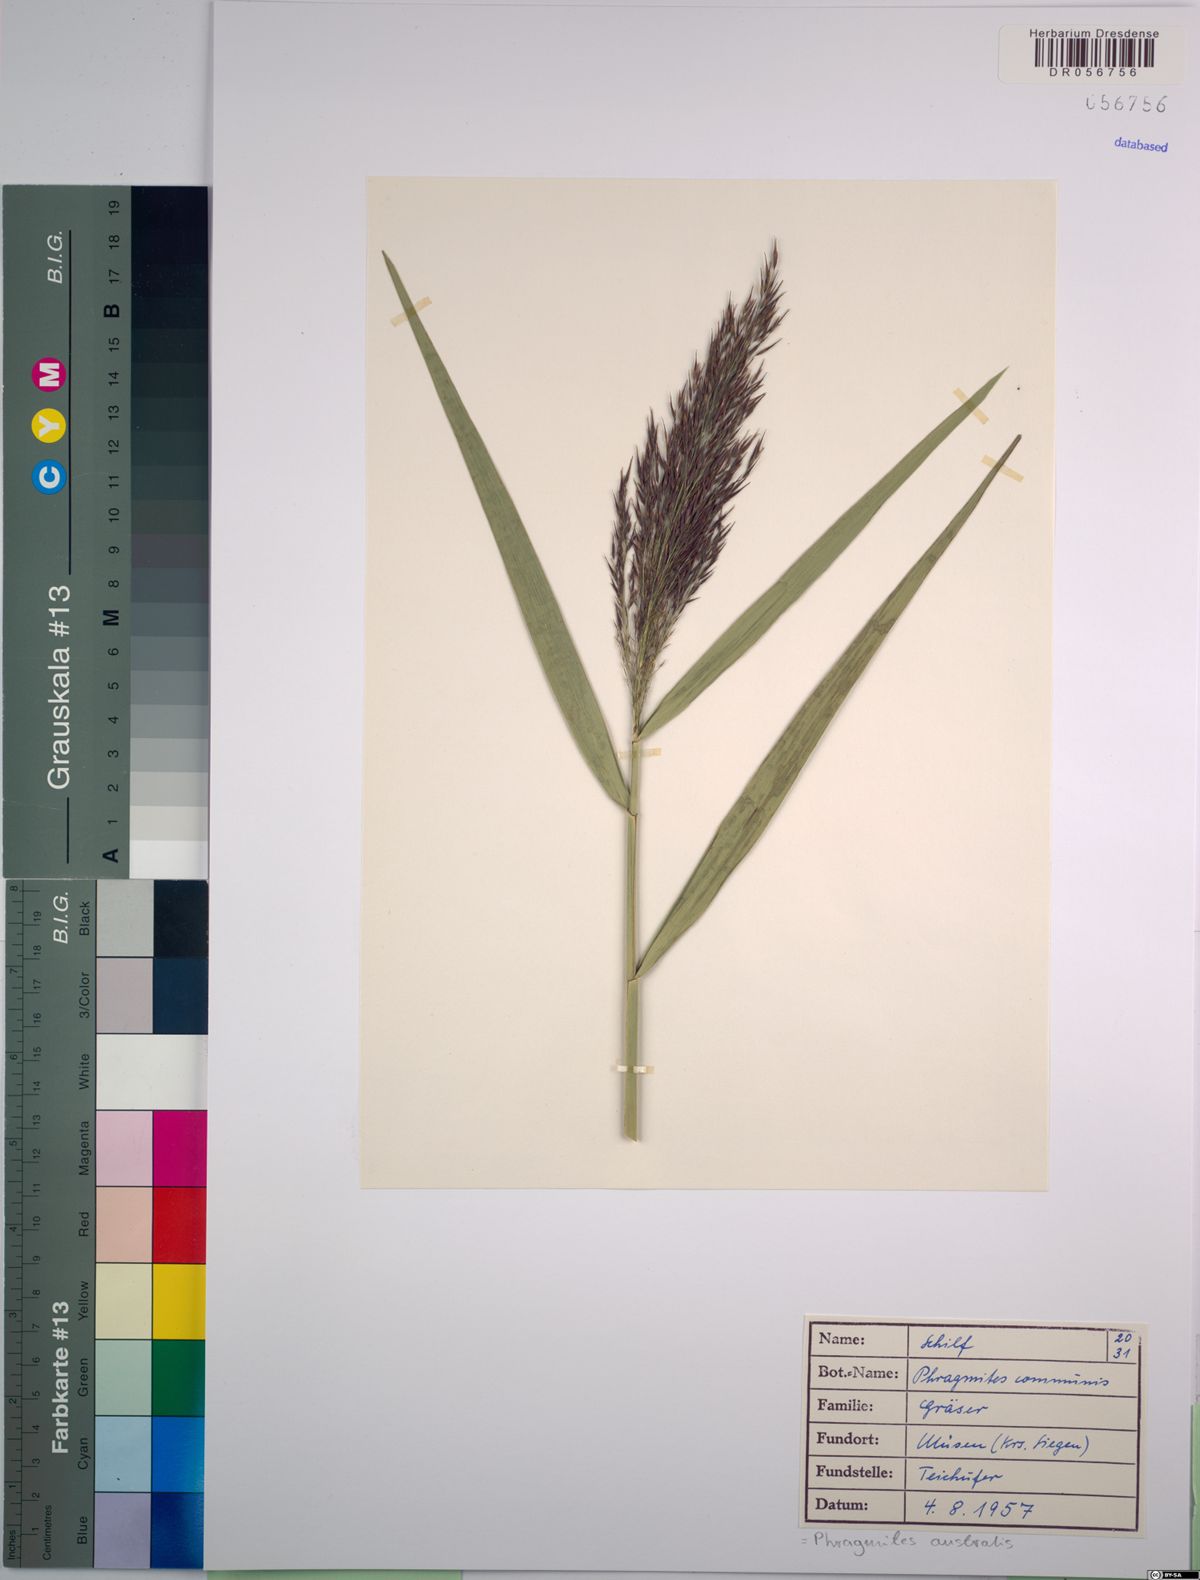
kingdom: Plantae
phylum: Tracheophyta
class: Liliopsida
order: Poales
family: Poaceae
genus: Phragmites
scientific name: Phragmites australis
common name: Common reed
